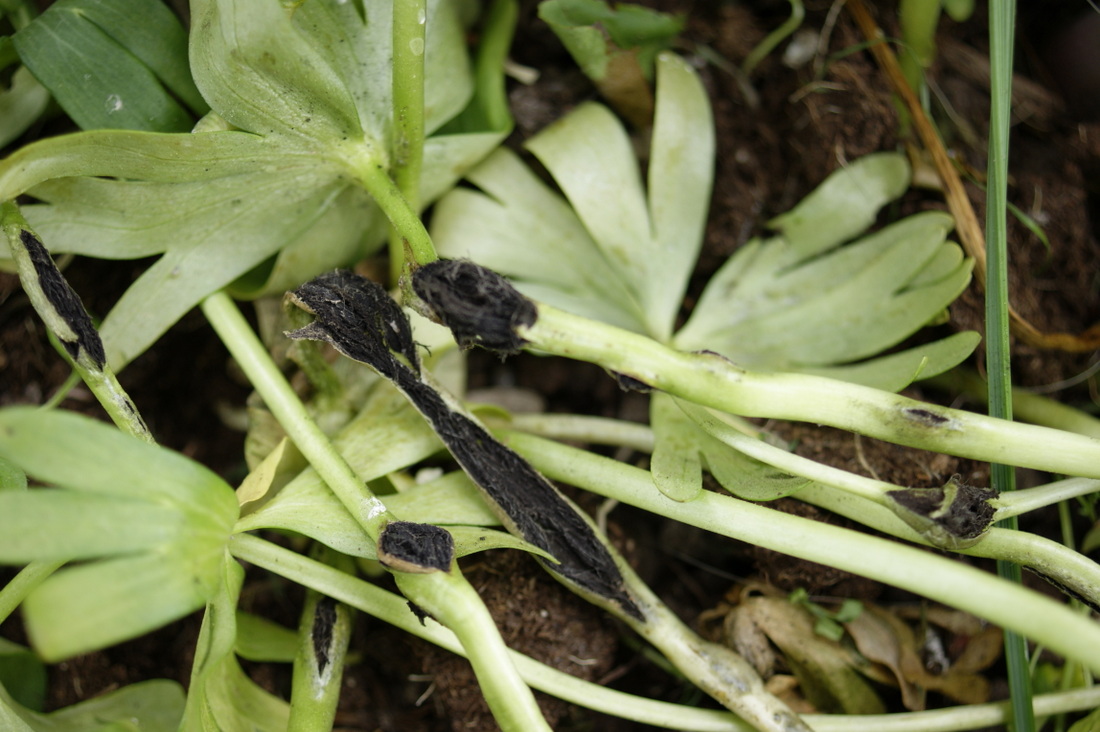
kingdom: Fungi
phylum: Basidiomycota
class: Ustilaginomycetes
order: Urocystidales
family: Urocystidaceae
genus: Urocystis
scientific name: Urocystis eranthidis
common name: erantis-brand
